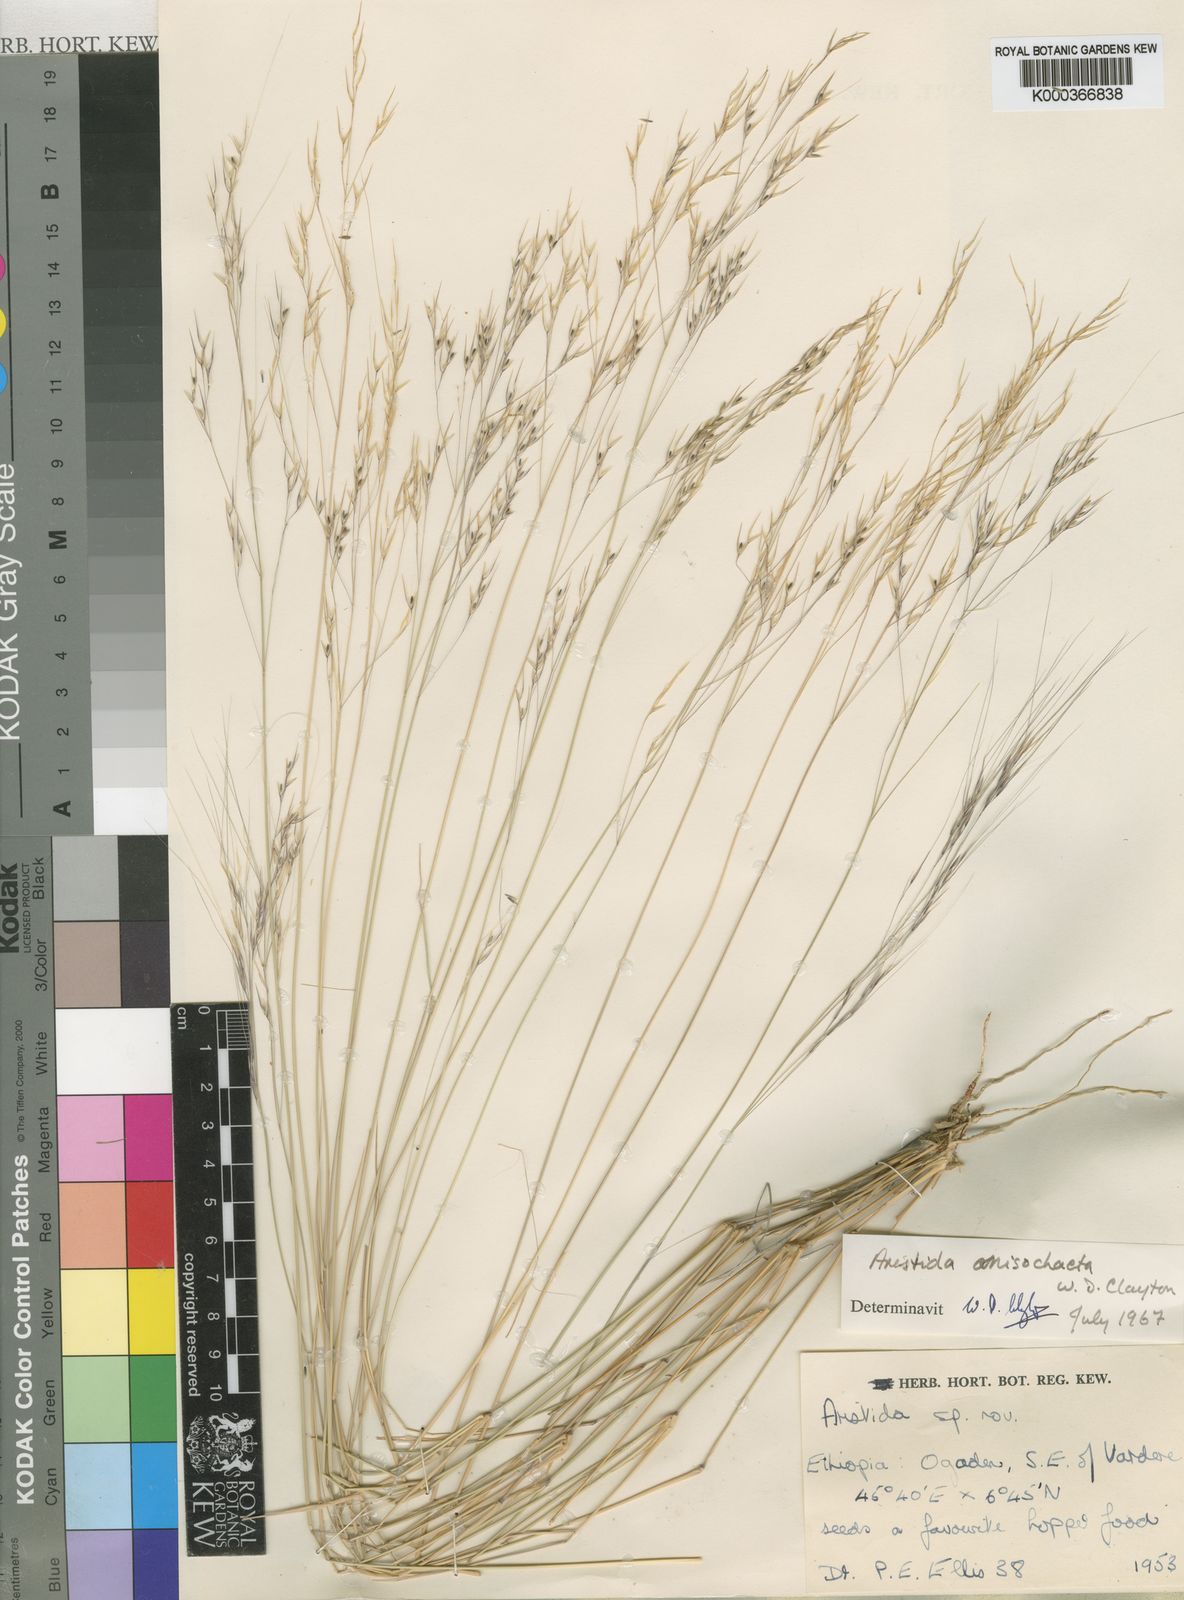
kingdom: Plantae
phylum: Tracheophyta
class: Liliopsida
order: Poales
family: Poaceae
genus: Aristida
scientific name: Aristida anisochaeta
